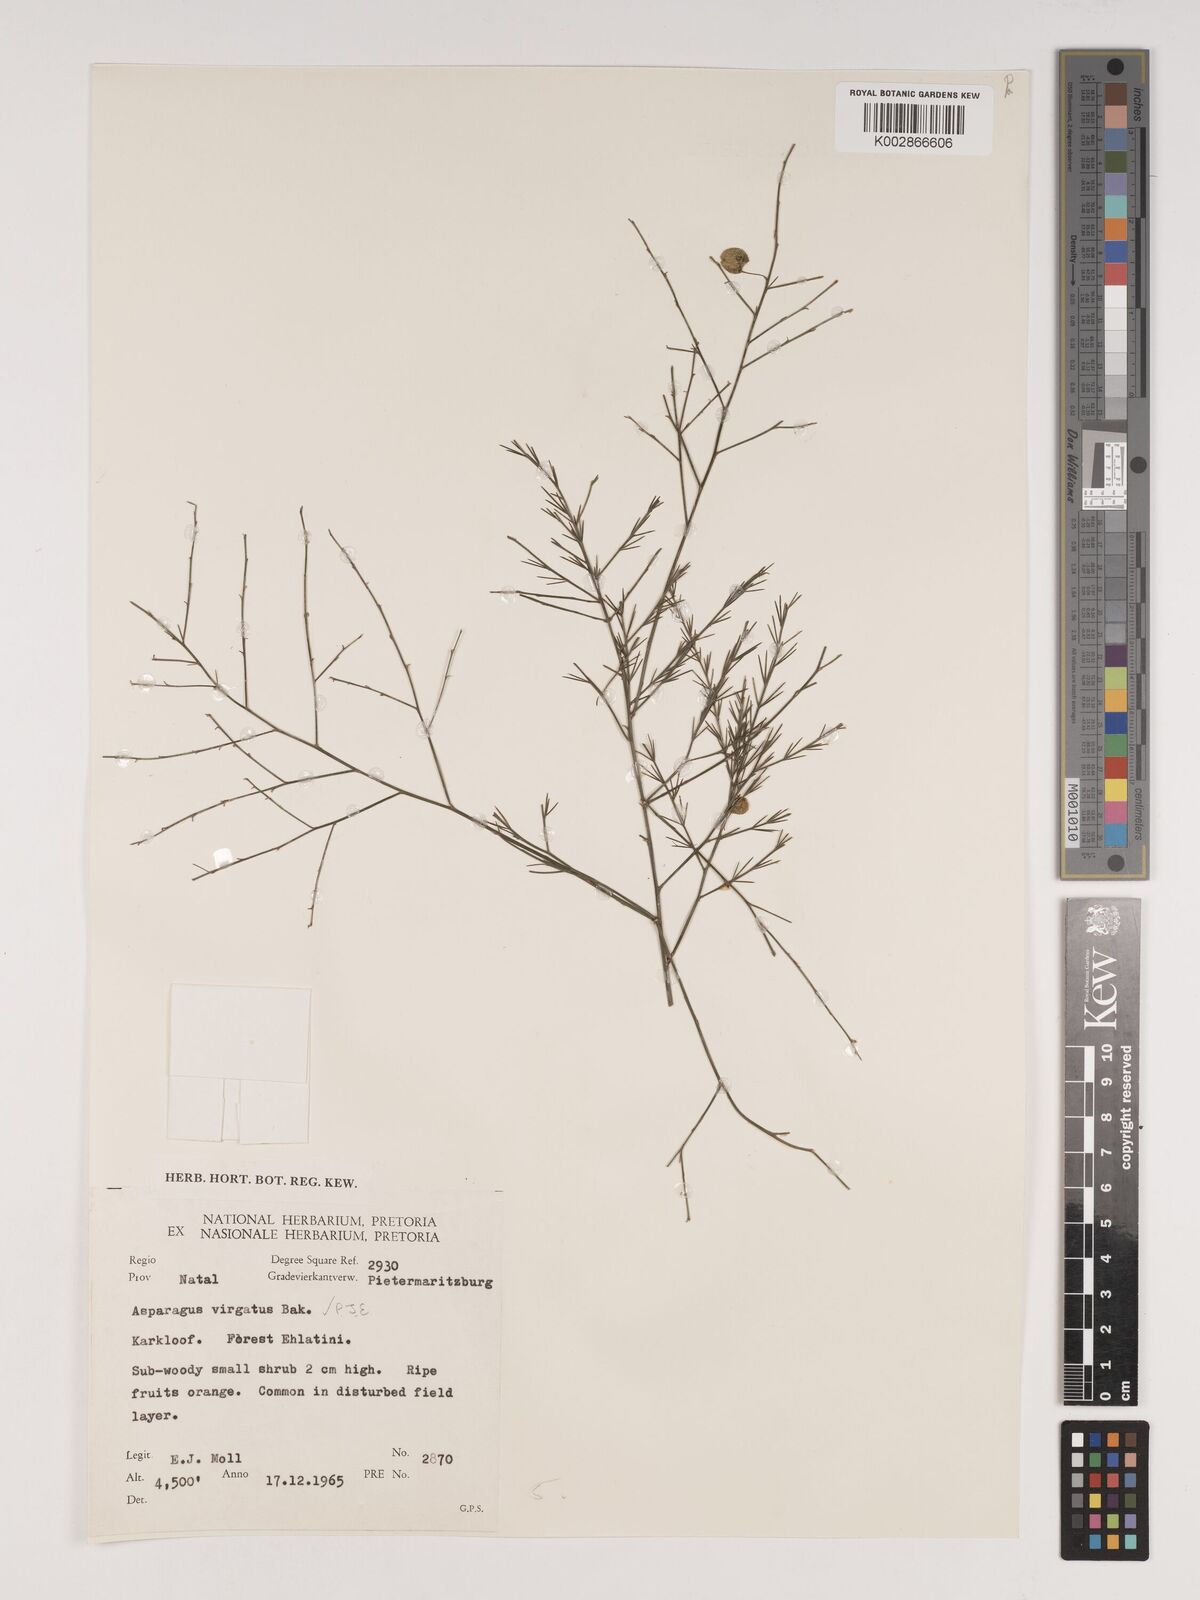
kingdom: Plantae
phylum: Tracheophyta
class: Liliopsida
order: Asparagales
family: Asparagaceae
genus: Asparagus
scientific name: Asparagus virgatus
